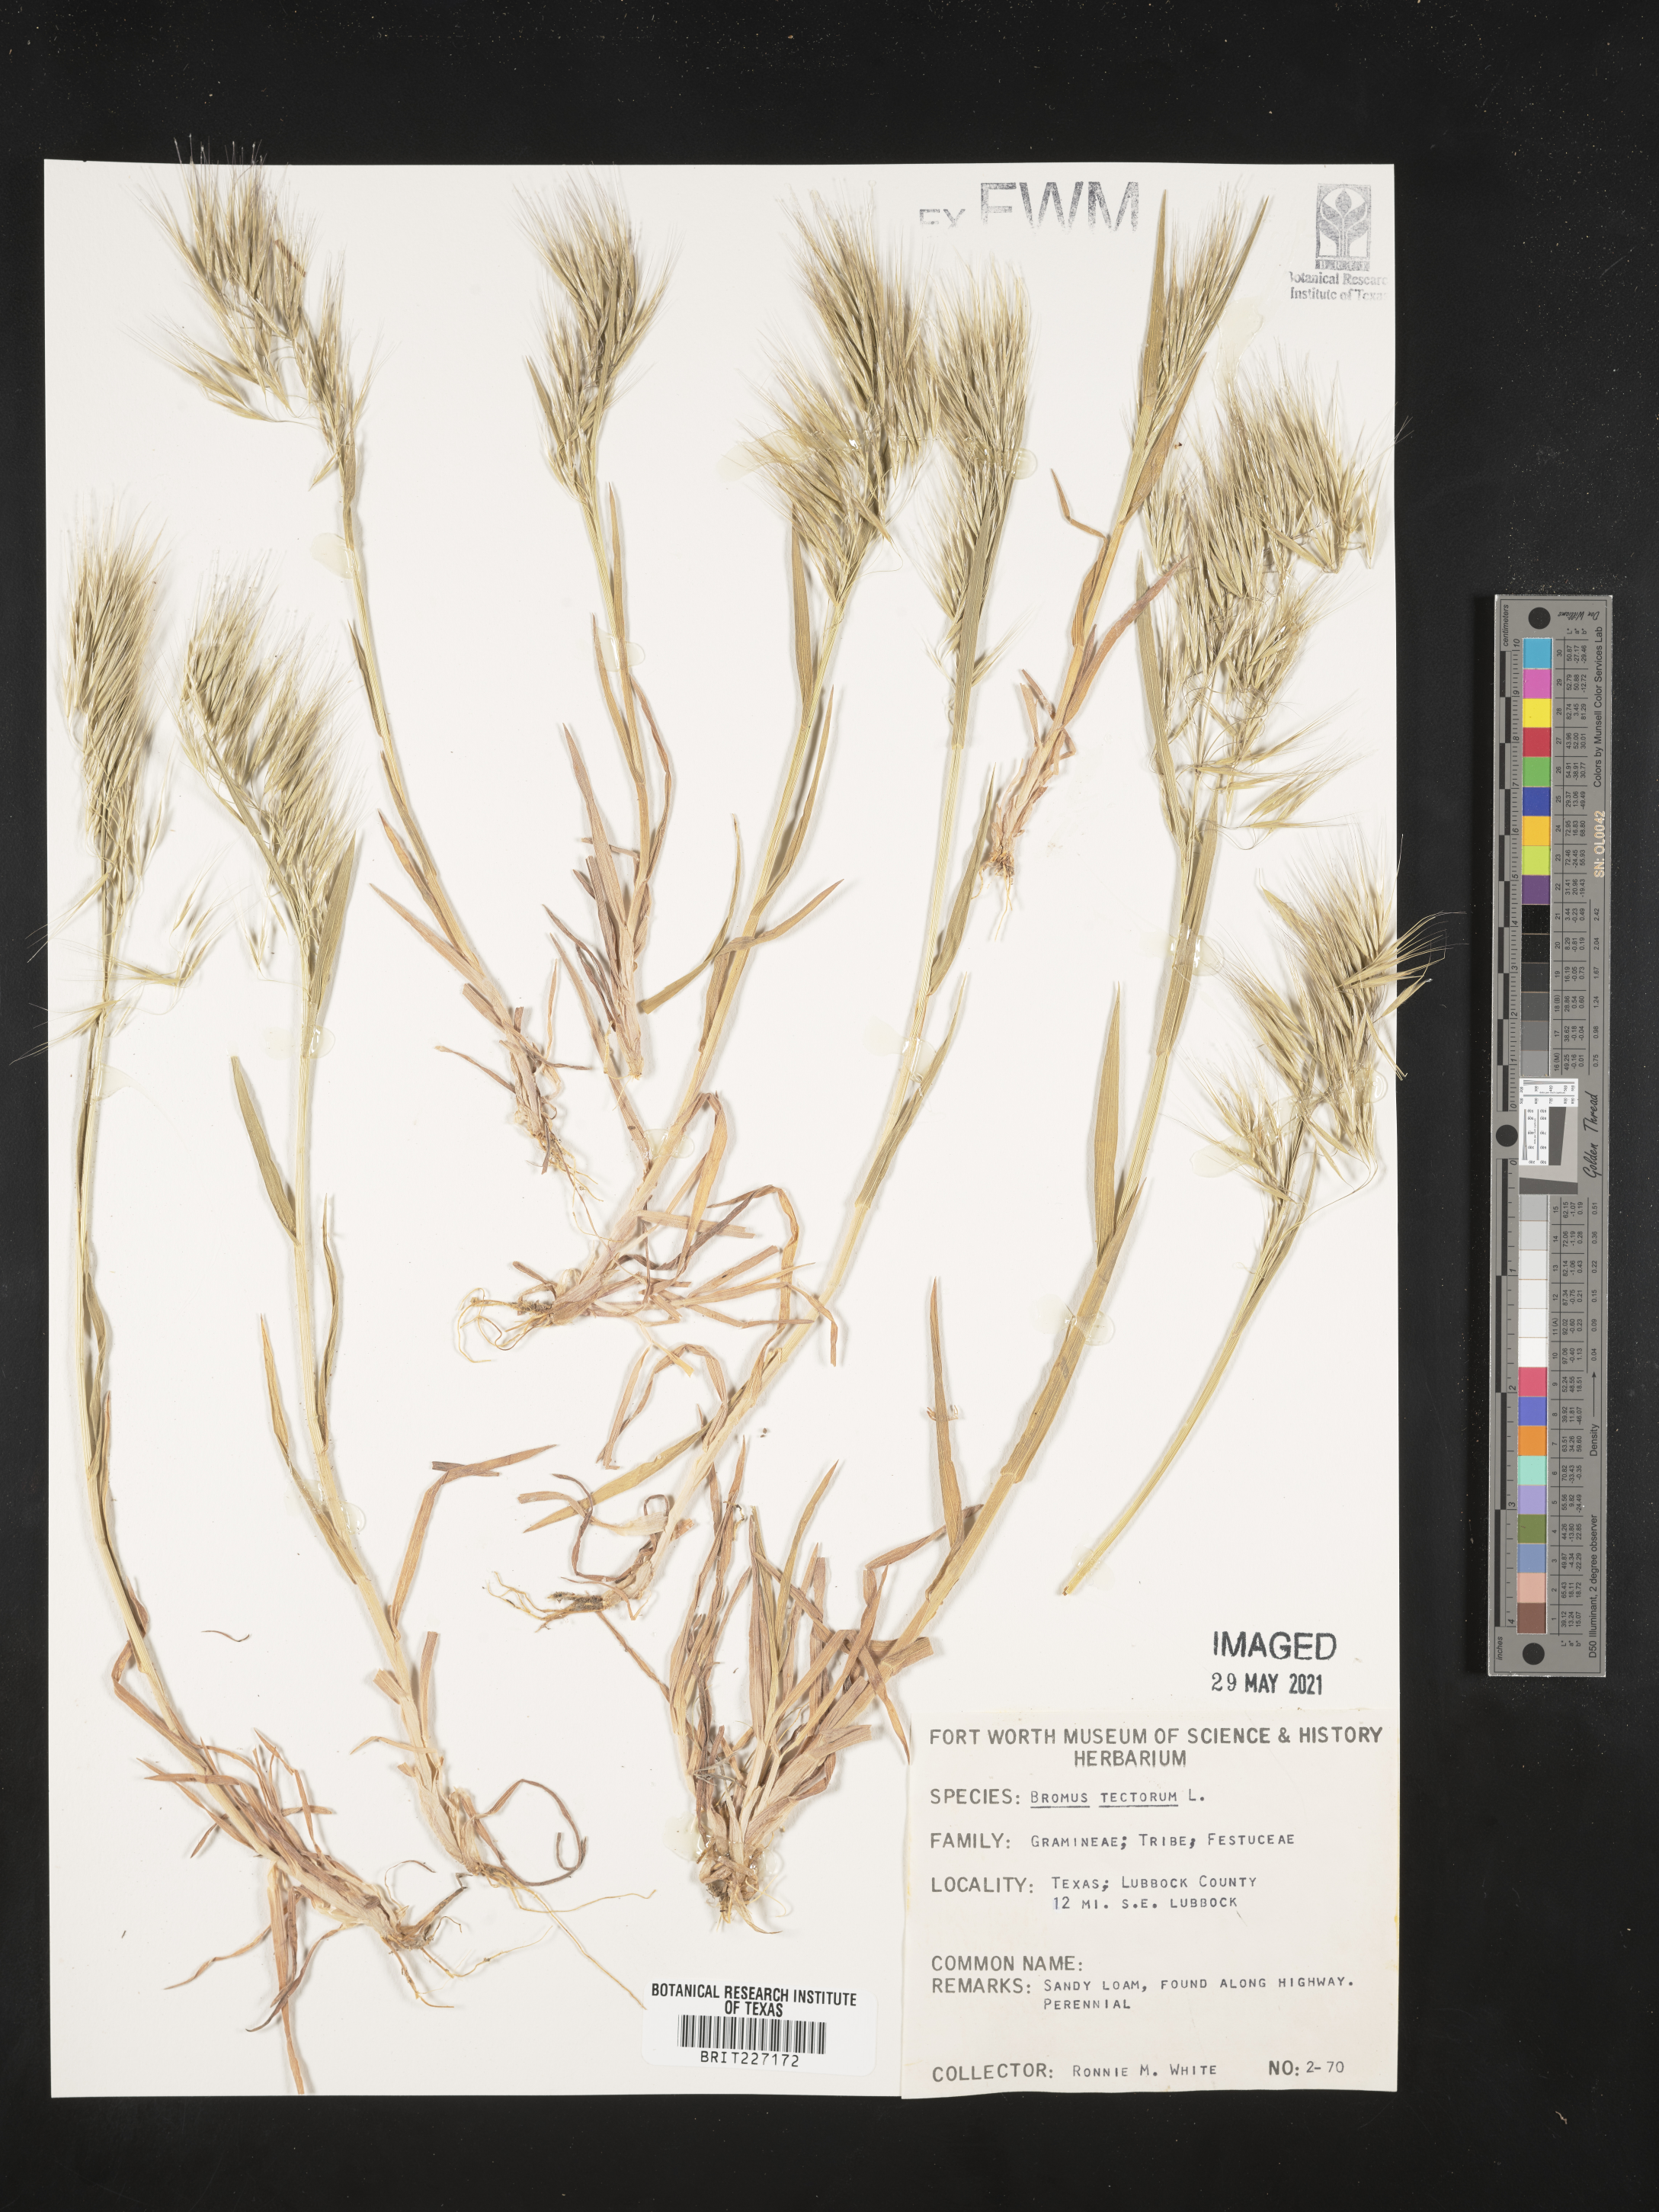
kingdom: Plantae
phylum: Tracheophyta
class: Liliopsida
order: Poales
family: Poaceae
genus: Bromus
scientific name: Bromus tectorum
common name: Cheatgrass
